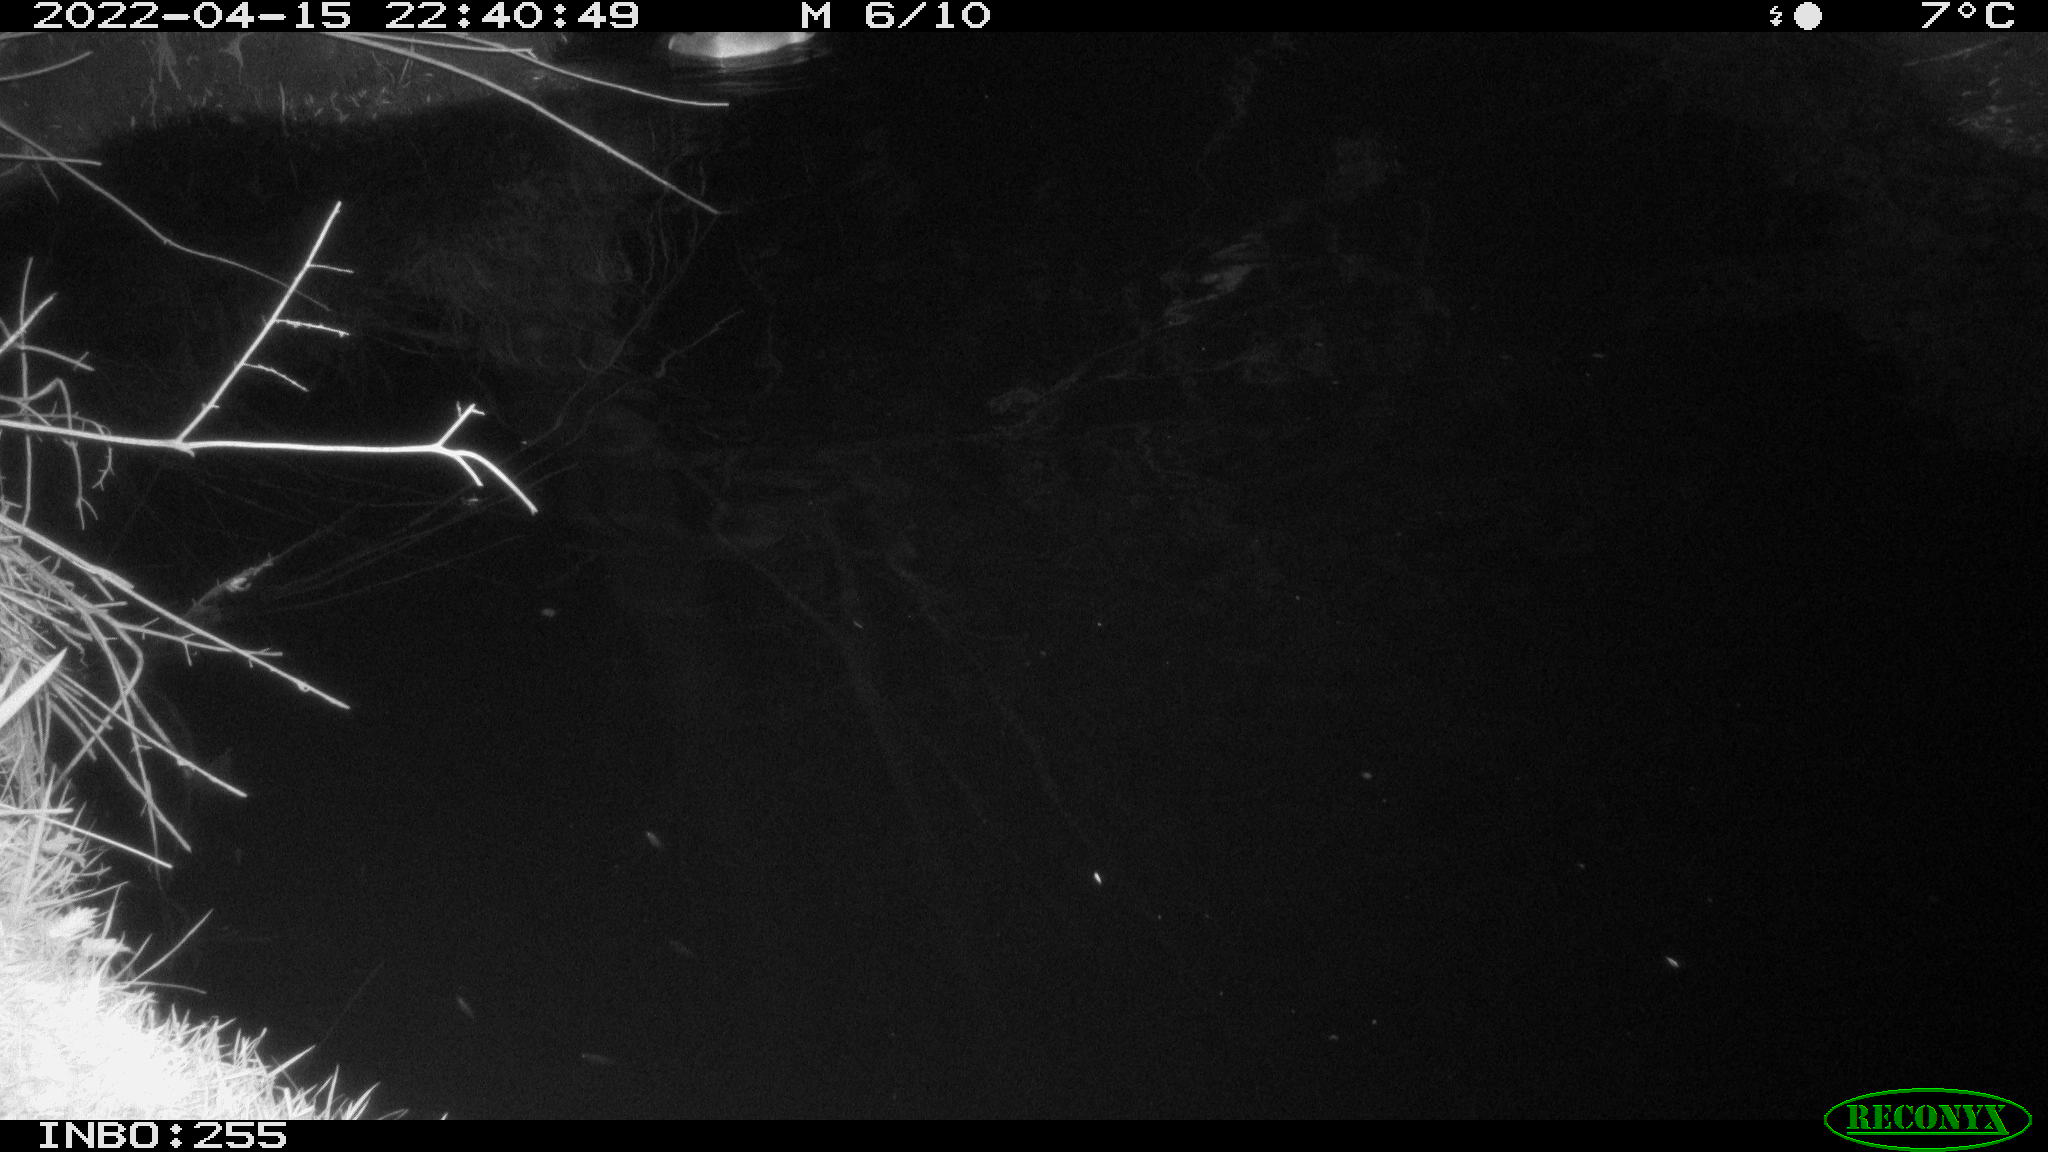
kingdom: Animalia
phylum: Chordata
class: Aves
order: Anseriformes
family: Anatidae
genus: Anas
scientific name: Anas platyrhynchos
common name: Mallard
